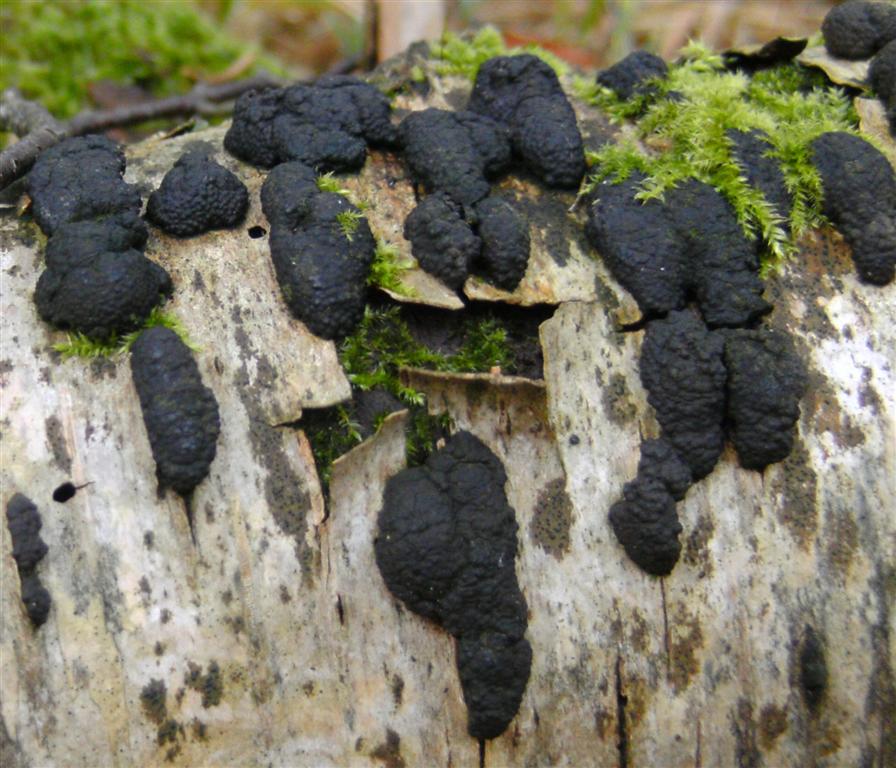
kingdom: Fungi
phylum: Ascomycota
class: Sordariomycetes
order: Xylariales
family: Hypoxylaceae
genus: Jackrogersella
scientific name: Jackrogersella multiformis
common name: foranderlig kulbær
